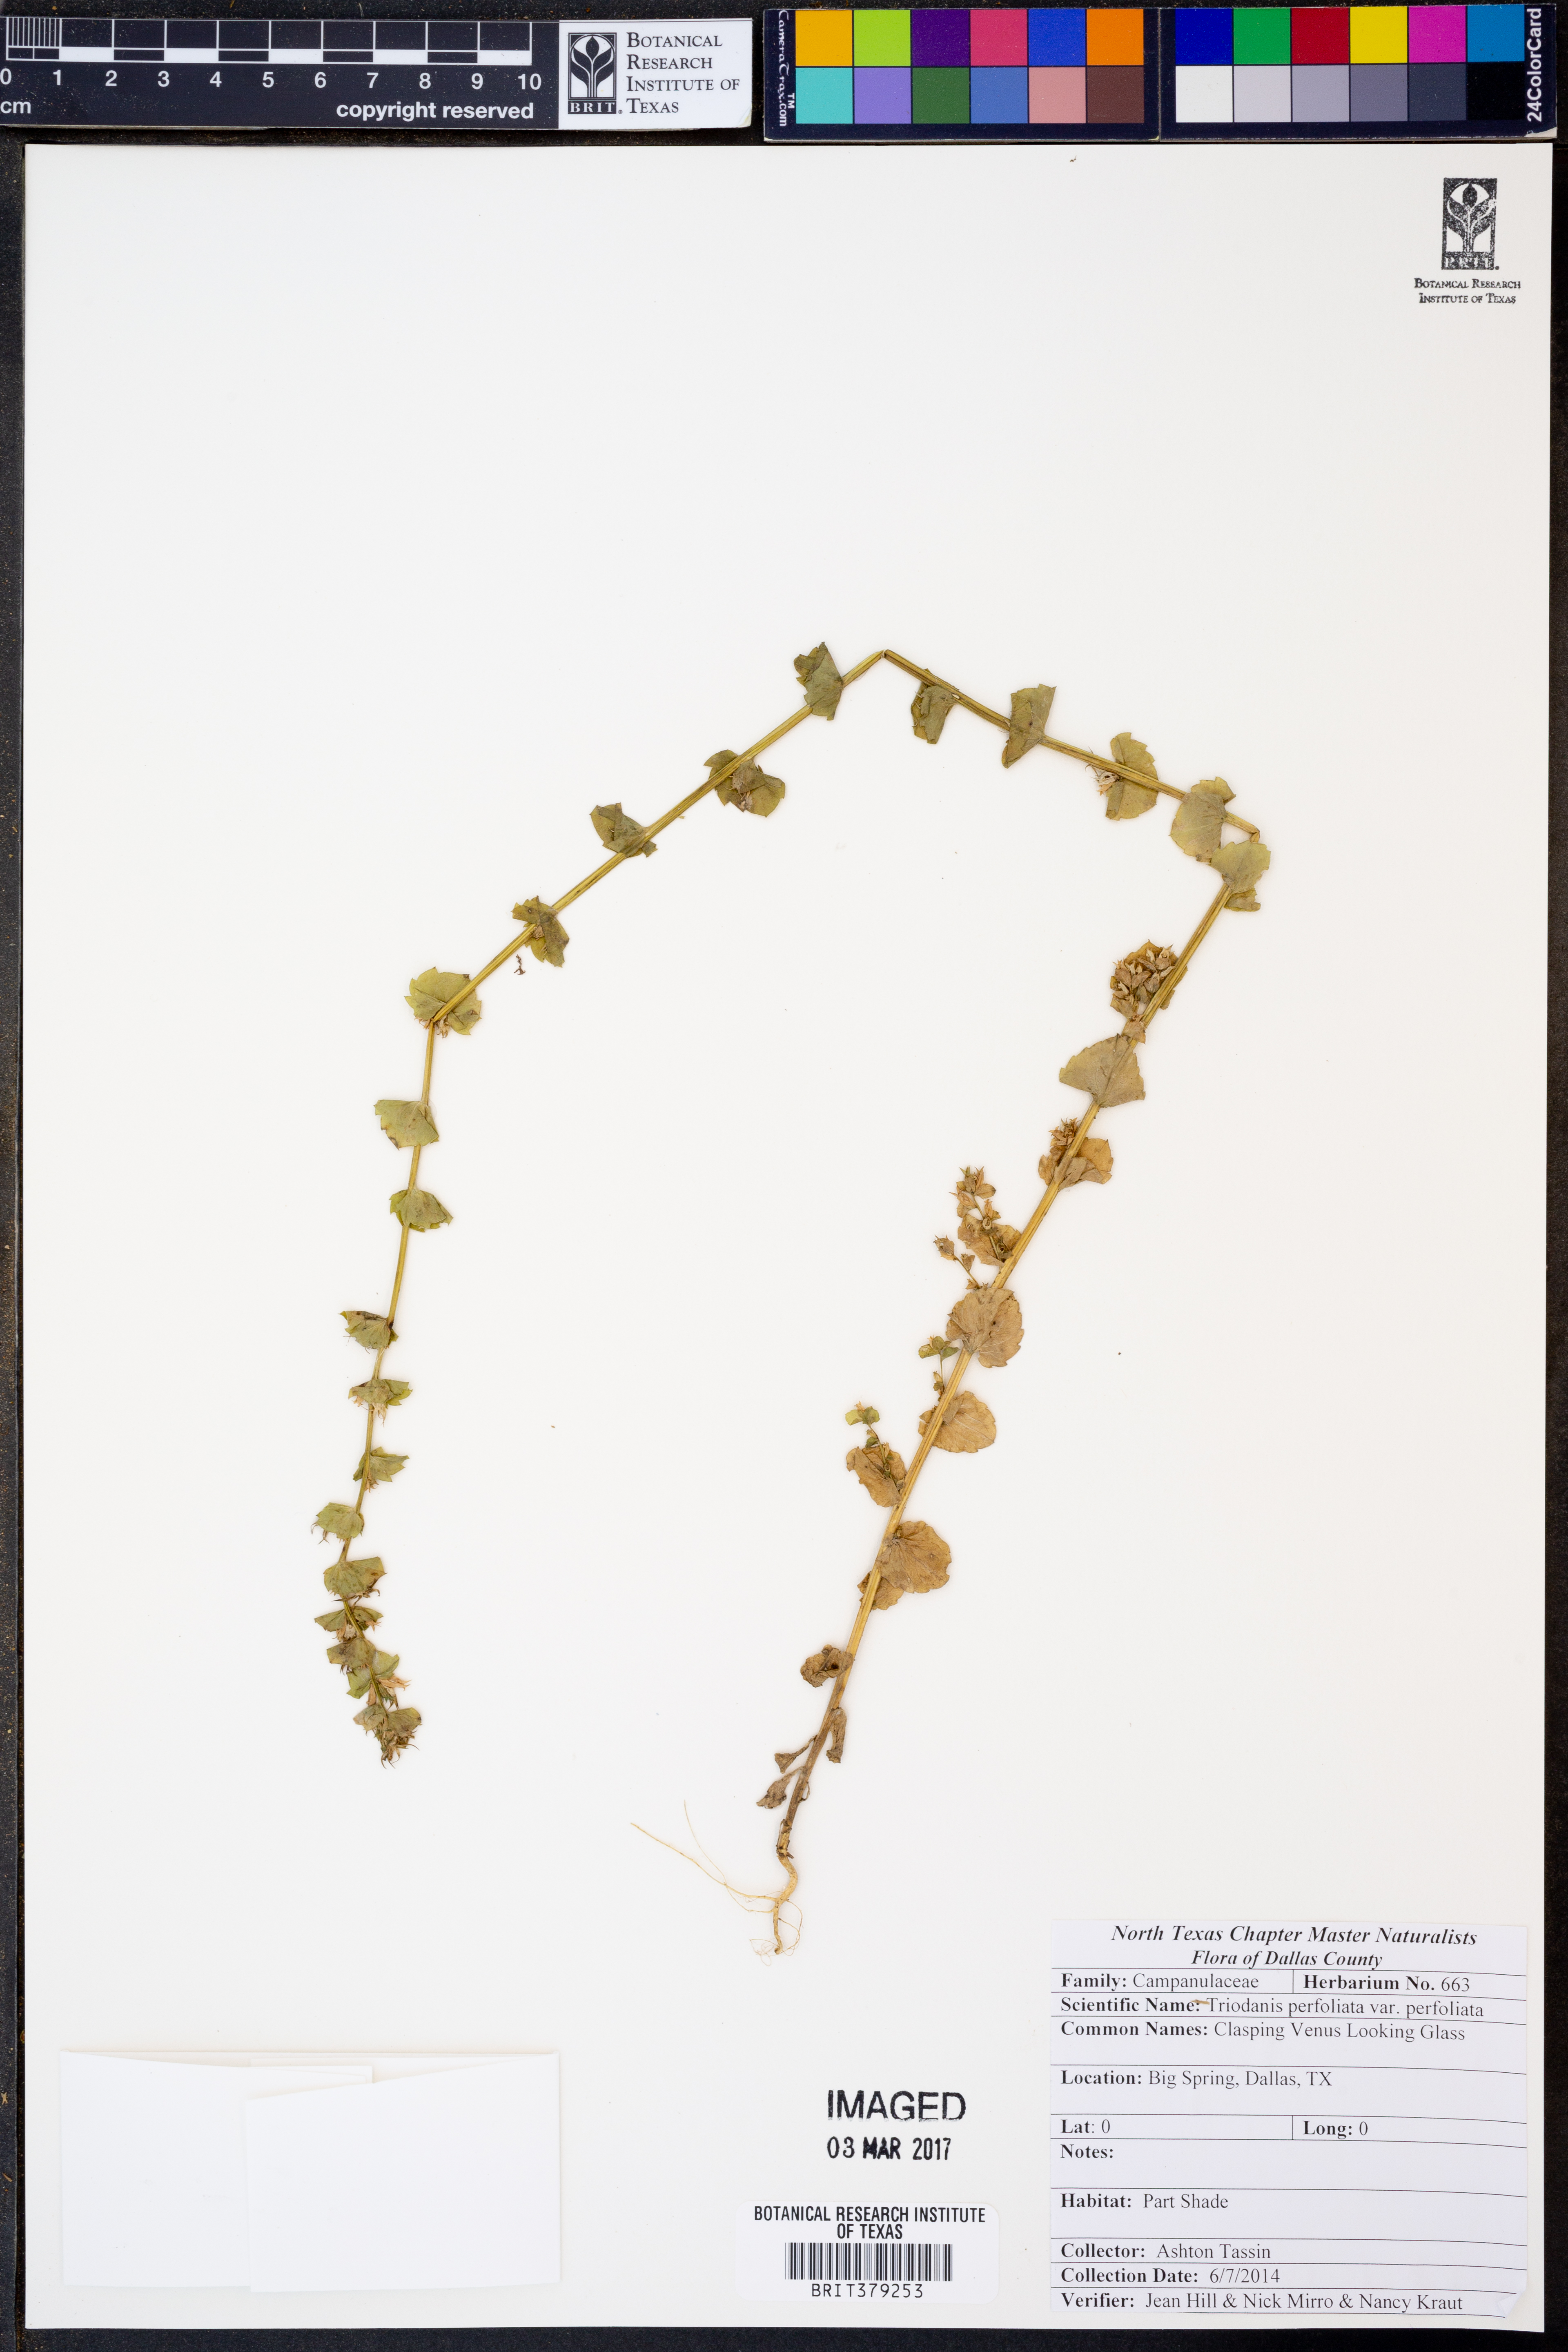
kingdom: Plantae
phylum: Tracheophyta
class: Magnoliopsida
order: Asterales
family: Campanulaceae
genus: Triodanis
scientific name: Triodanis perfoliata
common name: Clasping venus' looking-glass
